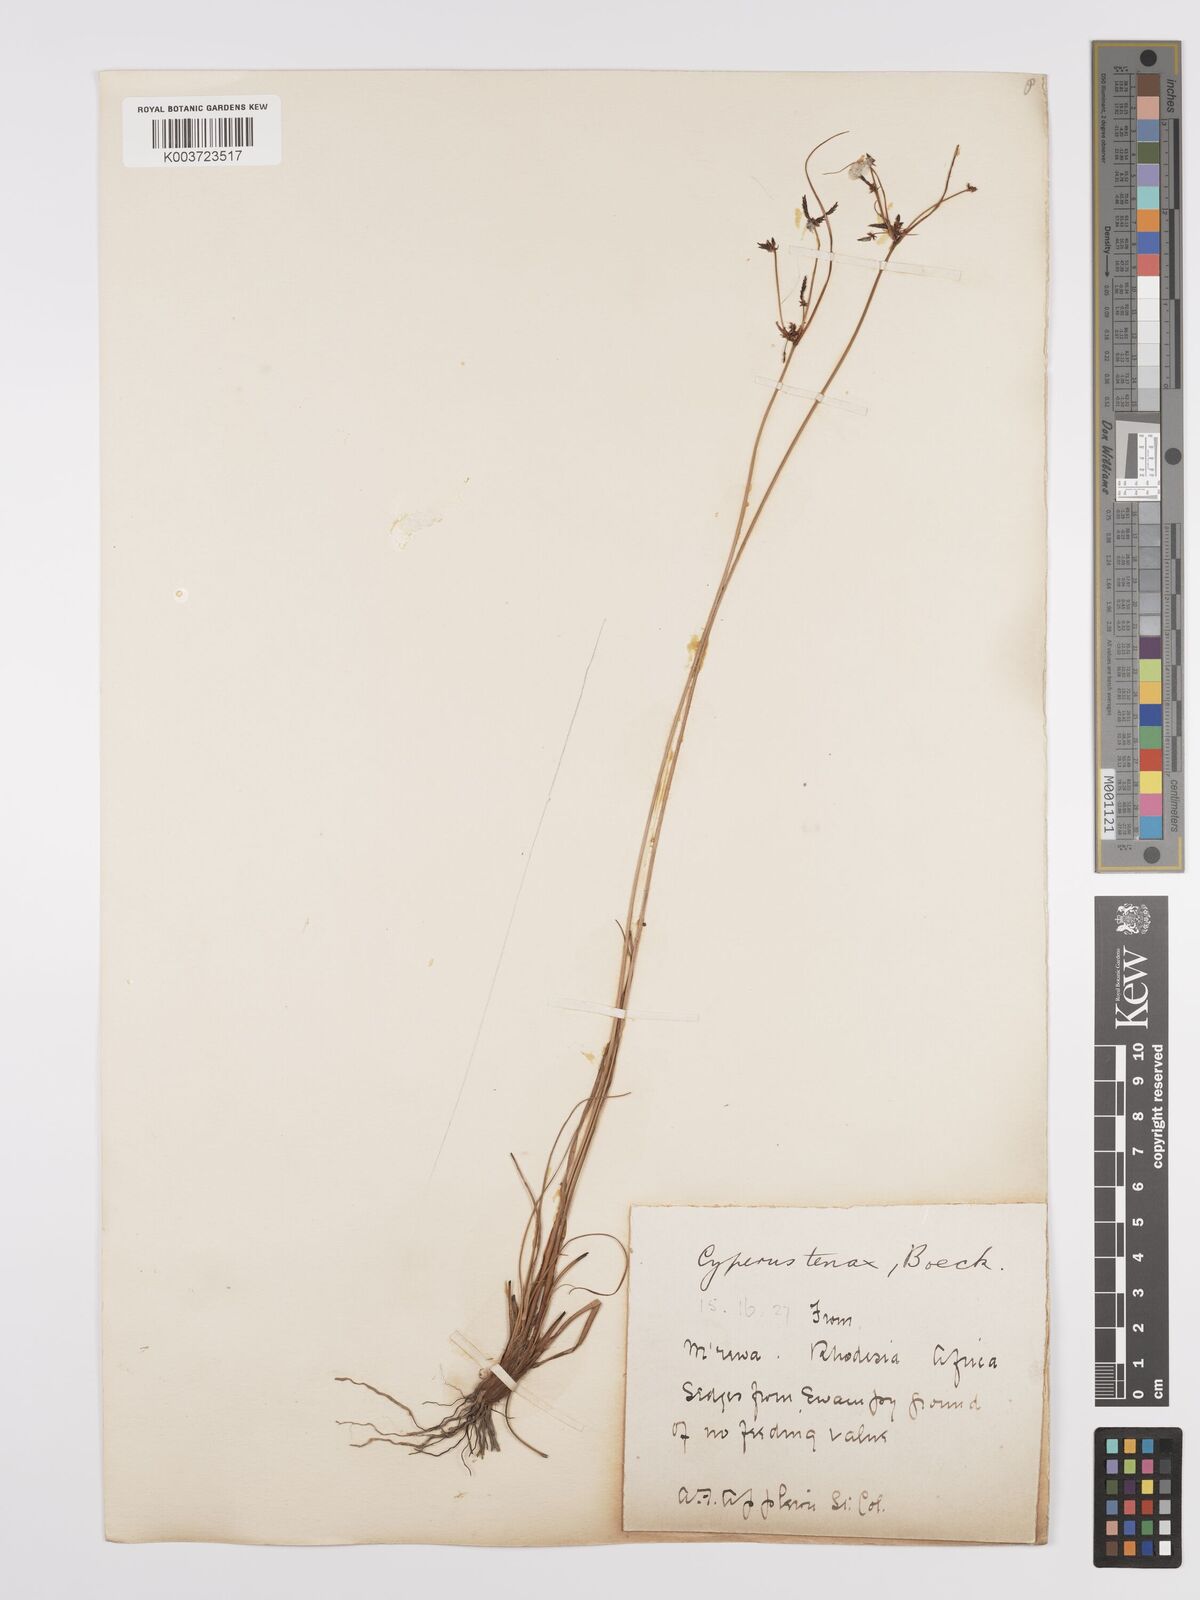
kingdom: Plantae
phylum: Tracheophyta
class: Liliopsida
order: Poales
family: Cyperaceae
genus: Cyperus
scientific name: Cyperus tenax
